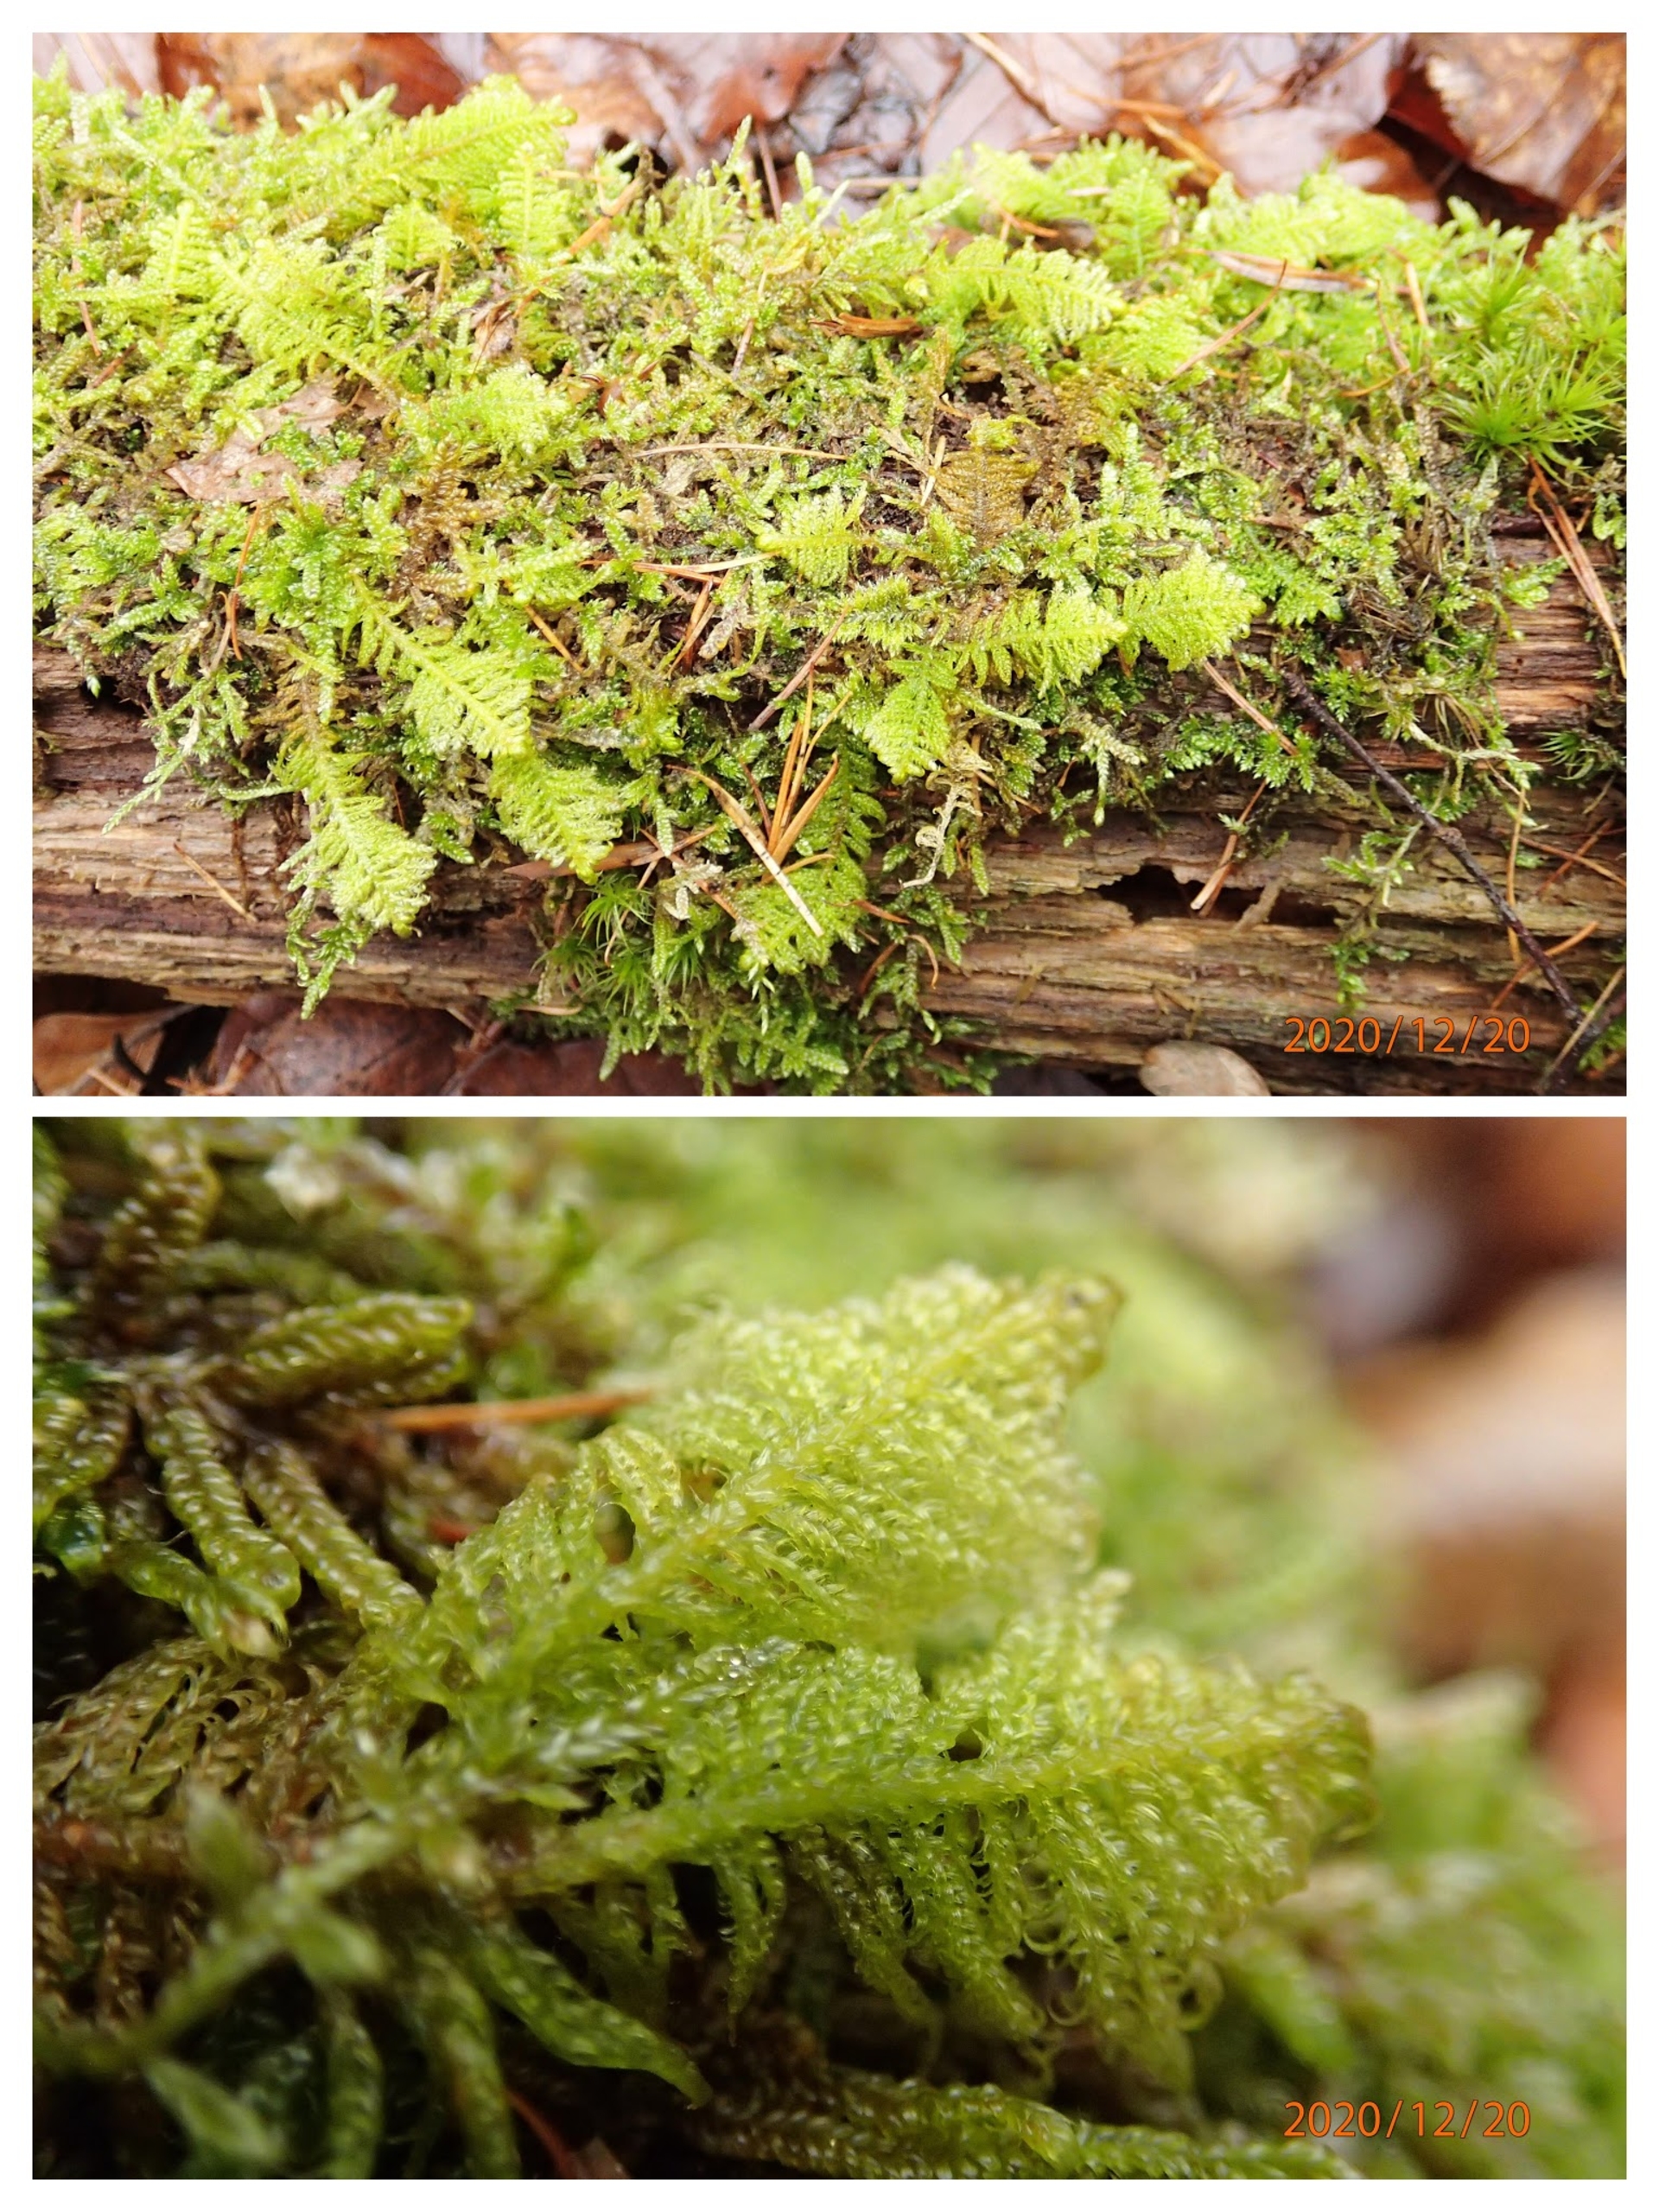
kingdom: Plantae
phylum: Bryophyta
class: Bryopsida
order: Hypnales
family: Pylaisiaceae
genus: Ptilium
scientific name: Ptilium crista-castrensis
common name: Fjer-kammos
